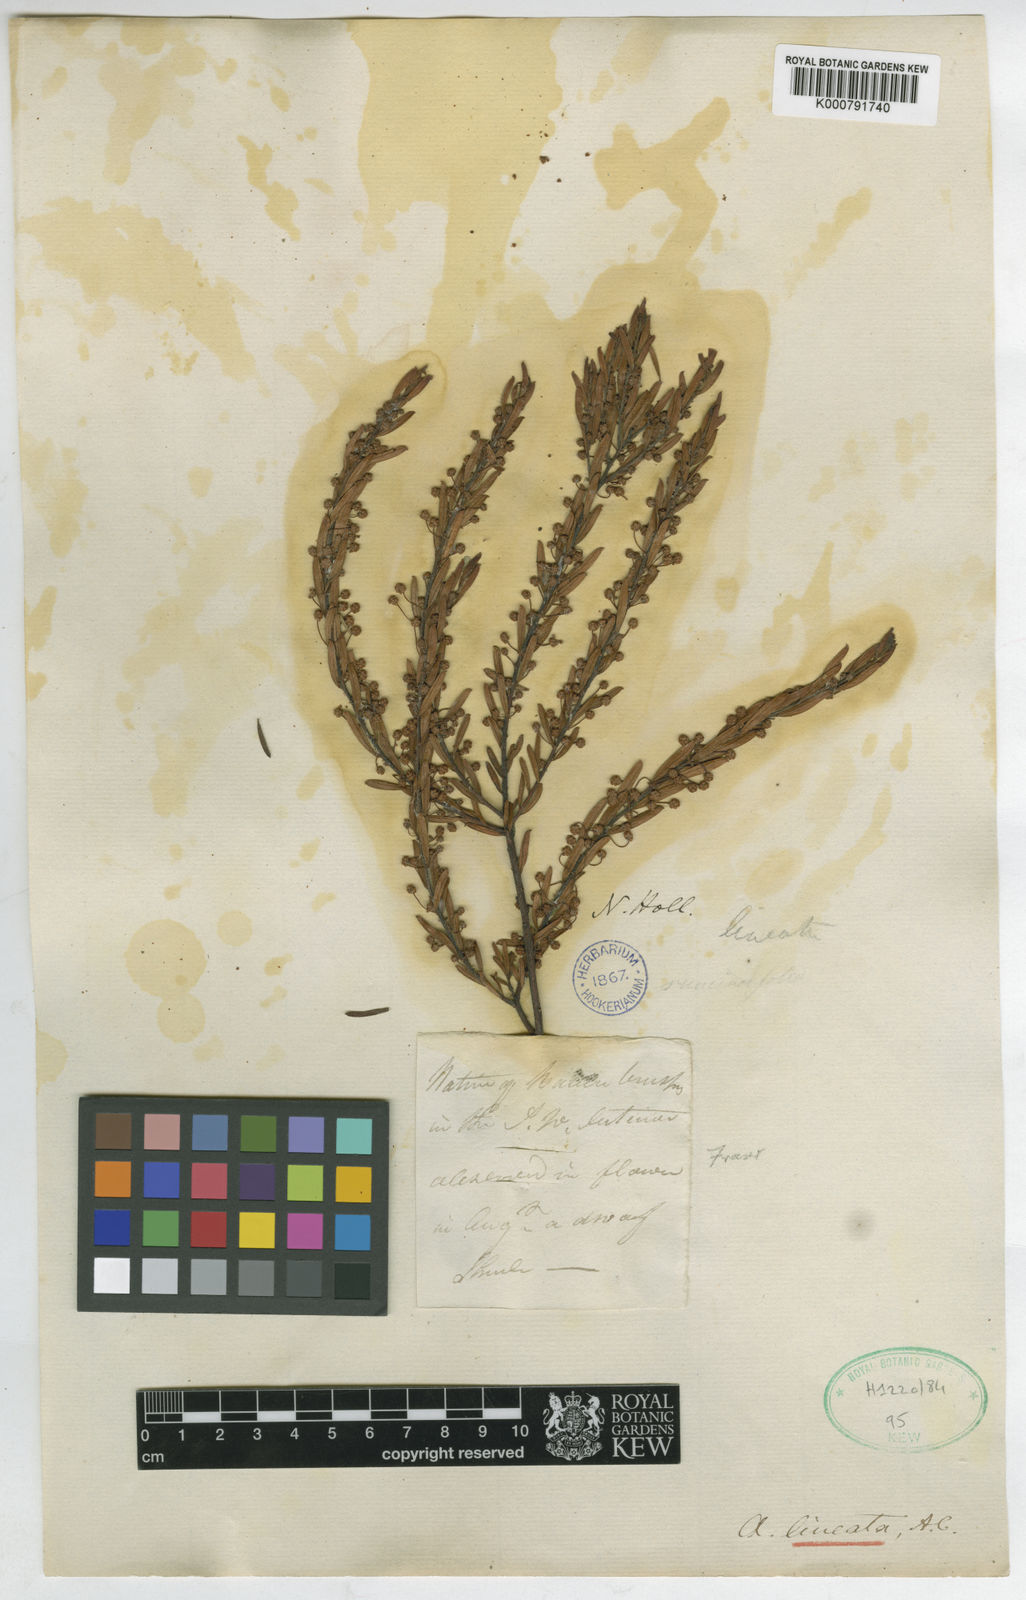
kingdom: Plantae
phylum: Tracheophyta
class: Magnoliopsida
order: Fabales
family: Fabaceae
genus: Acacia
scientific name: Acacia lineata
